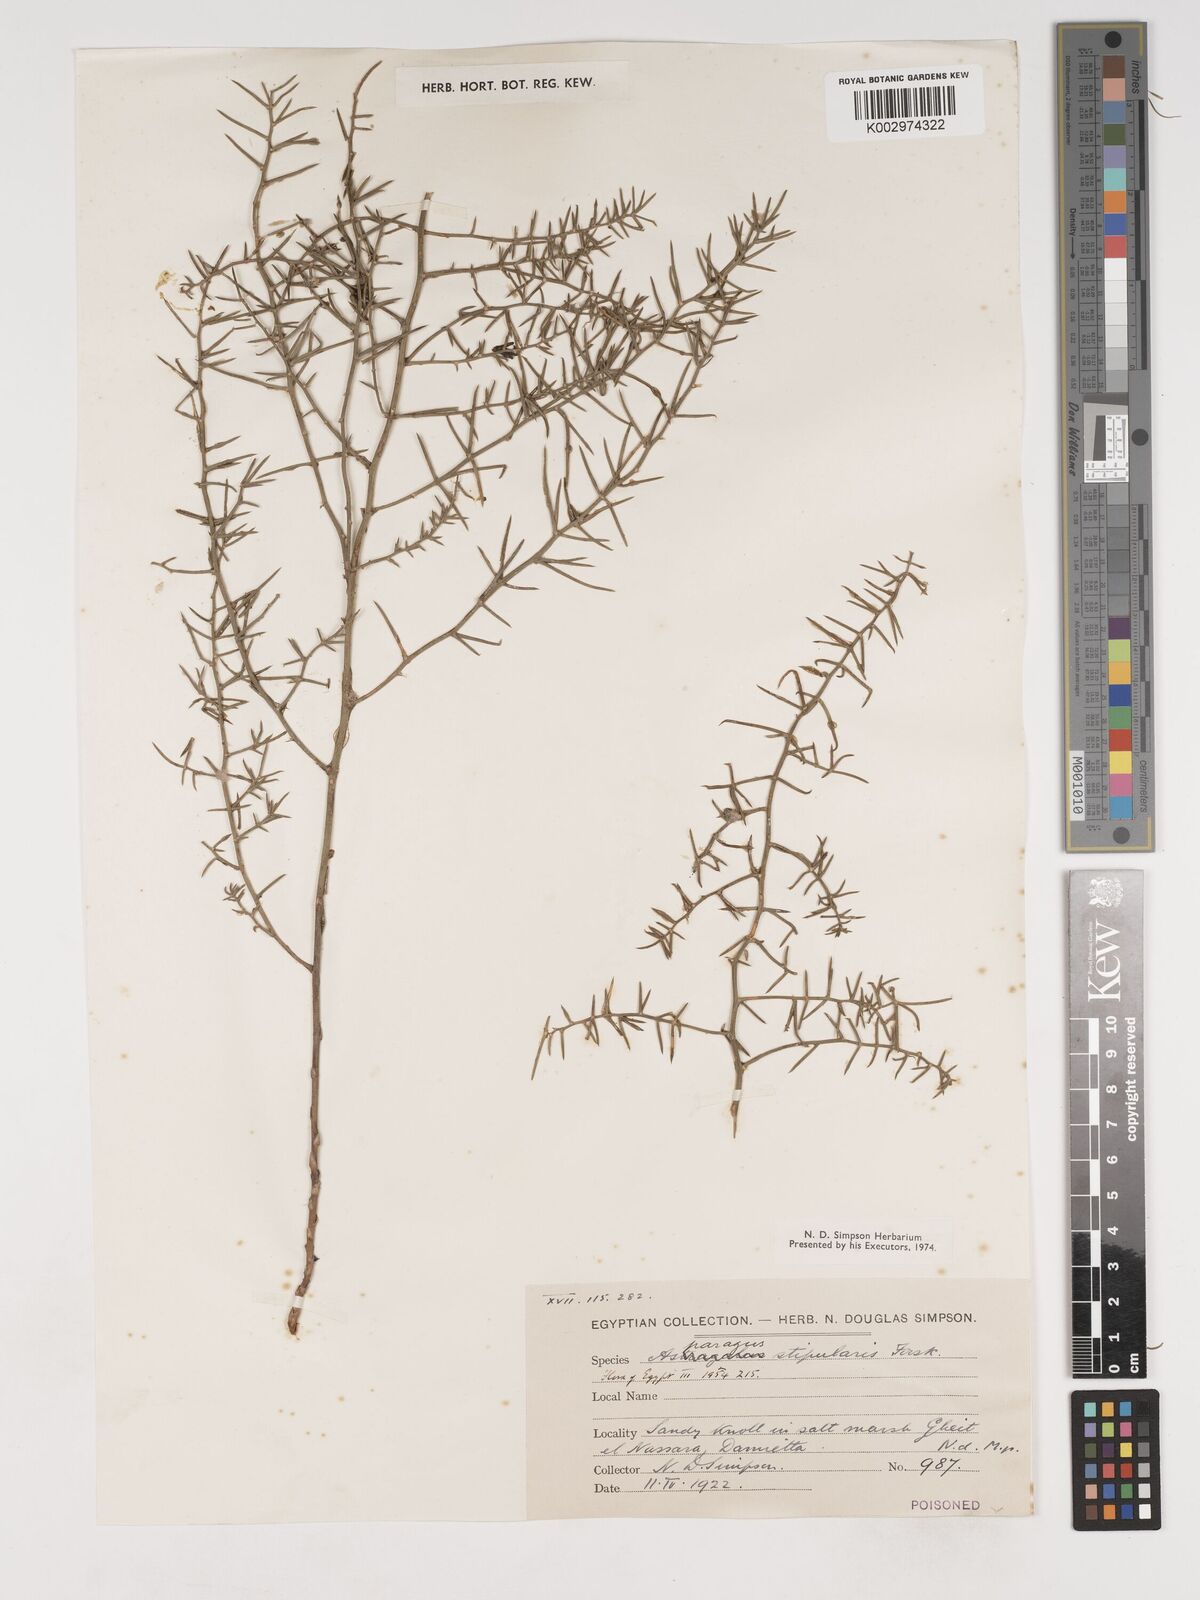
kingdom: Plantae
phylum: Tracheophyta
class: Liliopsida
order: Asparagales
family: Asparagaceae
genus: Asparagus
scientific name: Asparagus aphyllus
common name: Mediterranean asparagus
